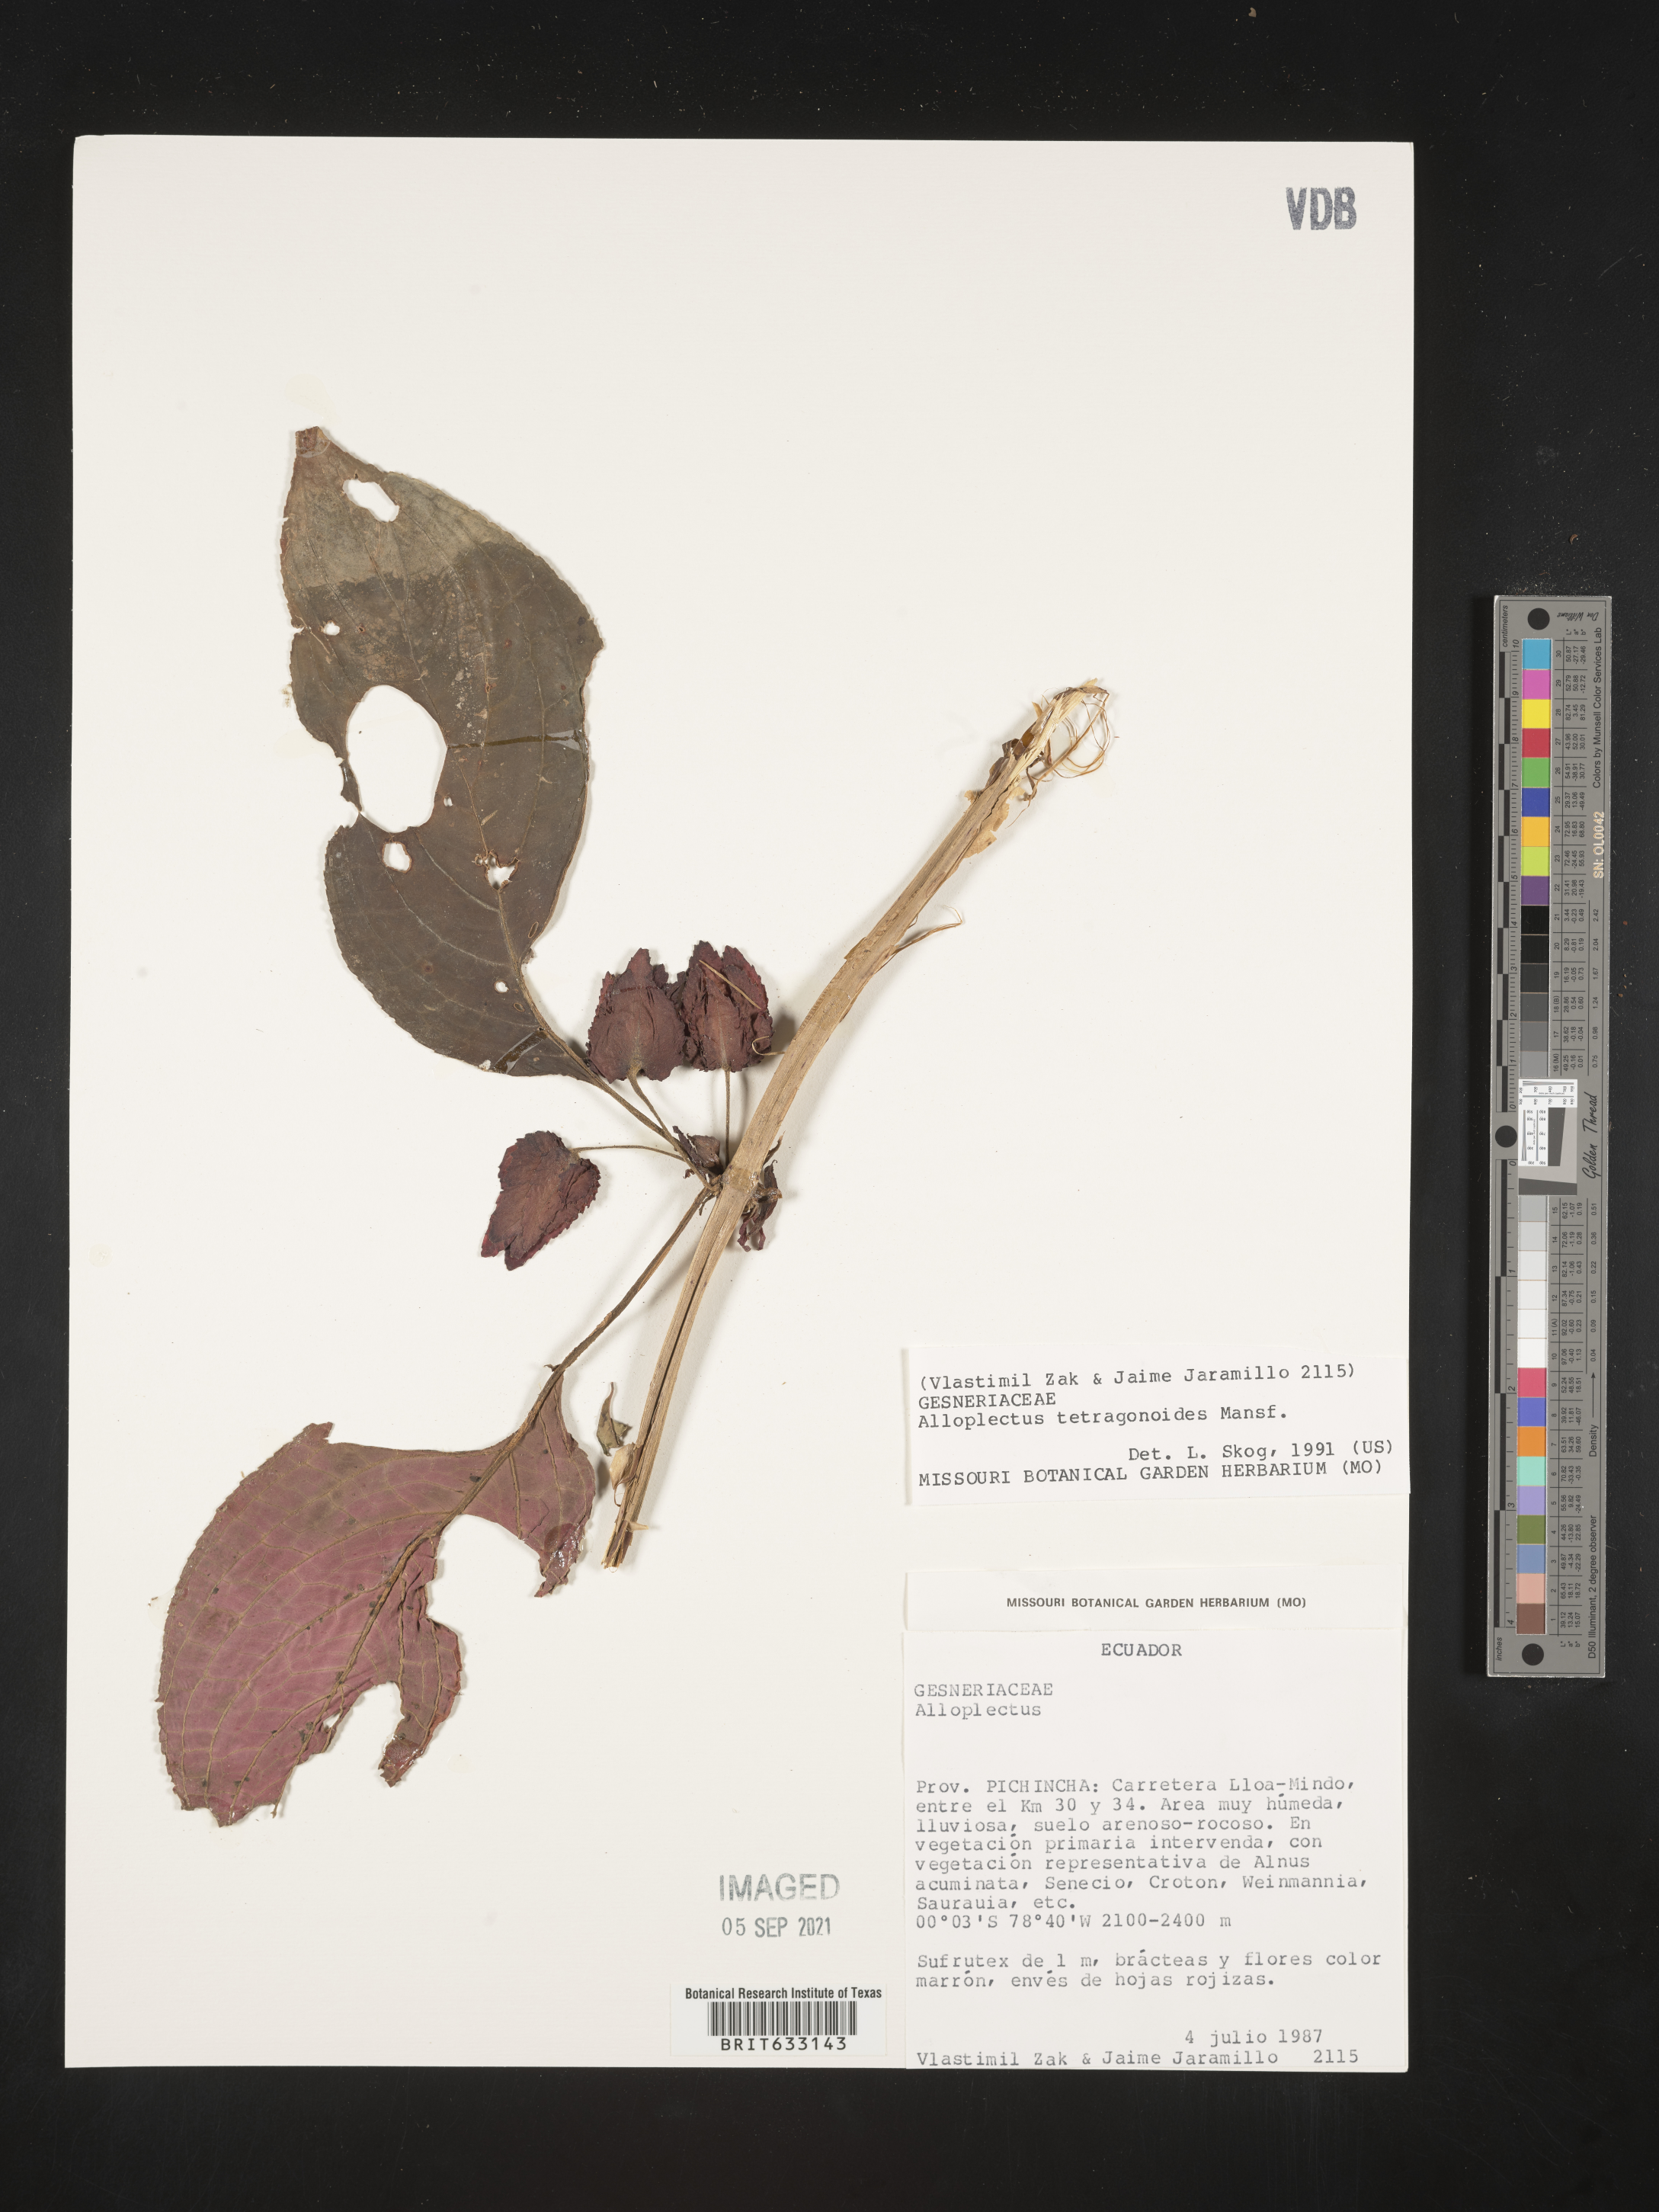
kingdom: Plantae
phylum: Tracheophyta
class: Magnoliopsida
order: Lamiales
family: Gesneriaceae
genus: Alloplectus
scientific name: Alloplectus
